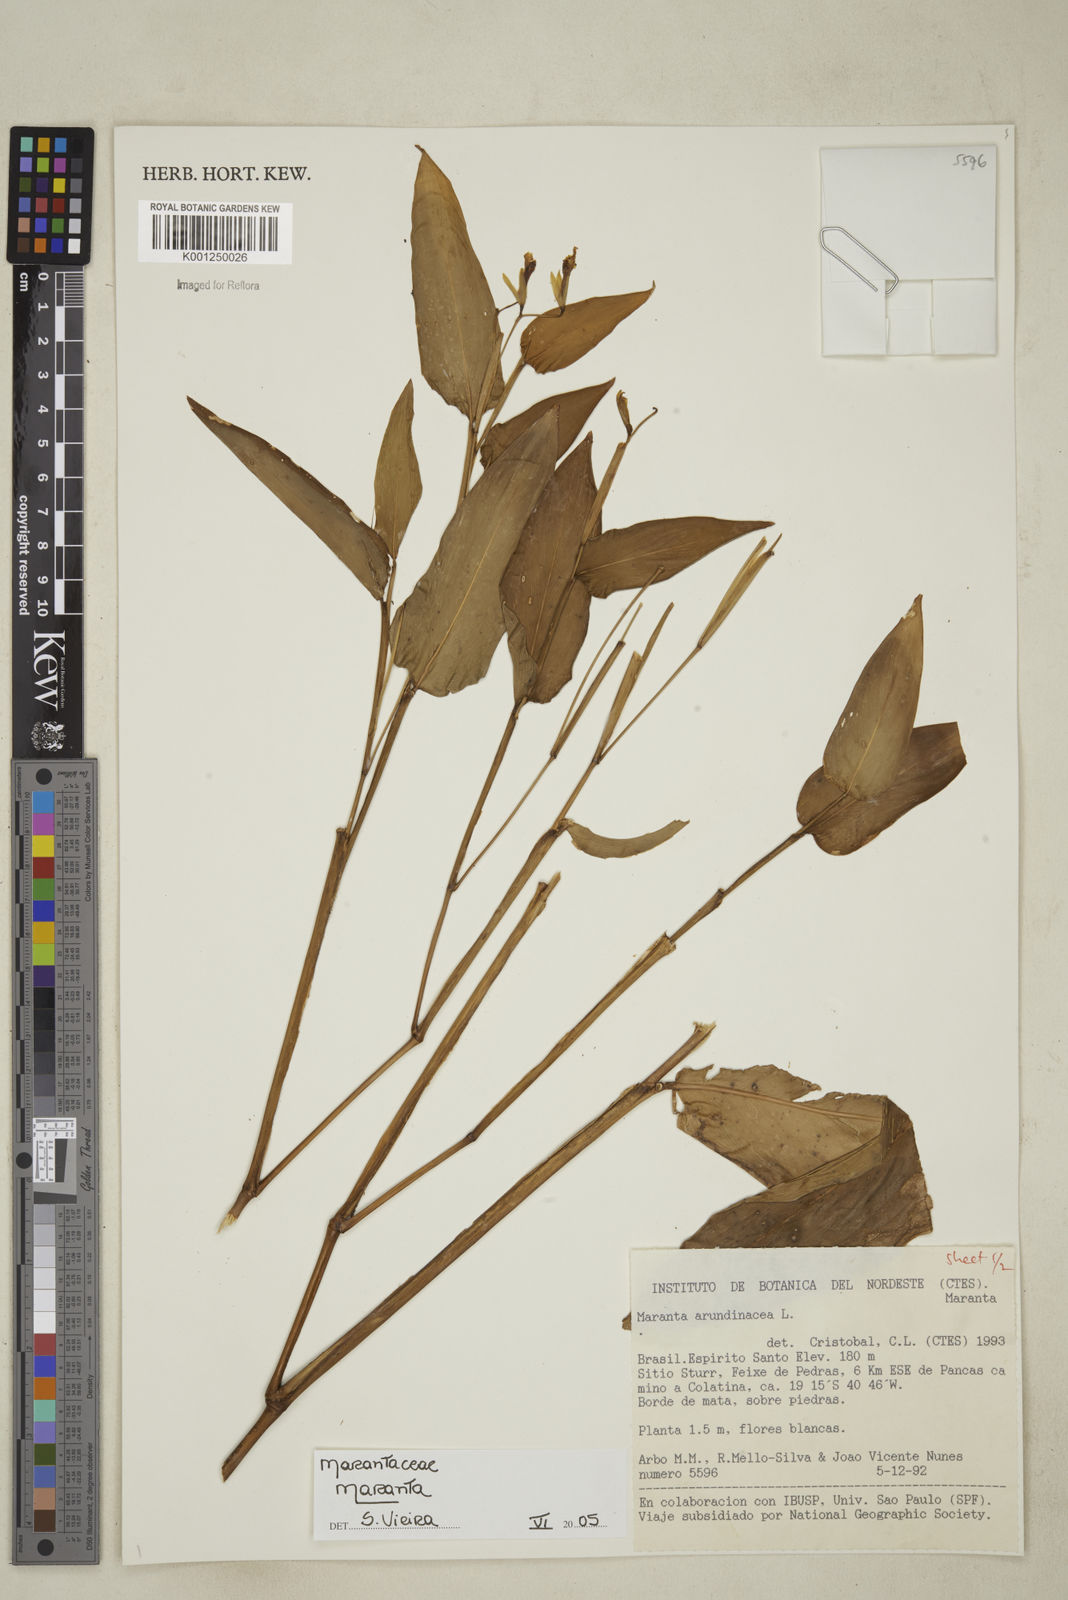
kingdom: Plantae
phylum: Tracheophyta
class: Liliopsida
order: Zingiberales
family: Marantaceae
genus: Maranta
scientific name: Maranta
